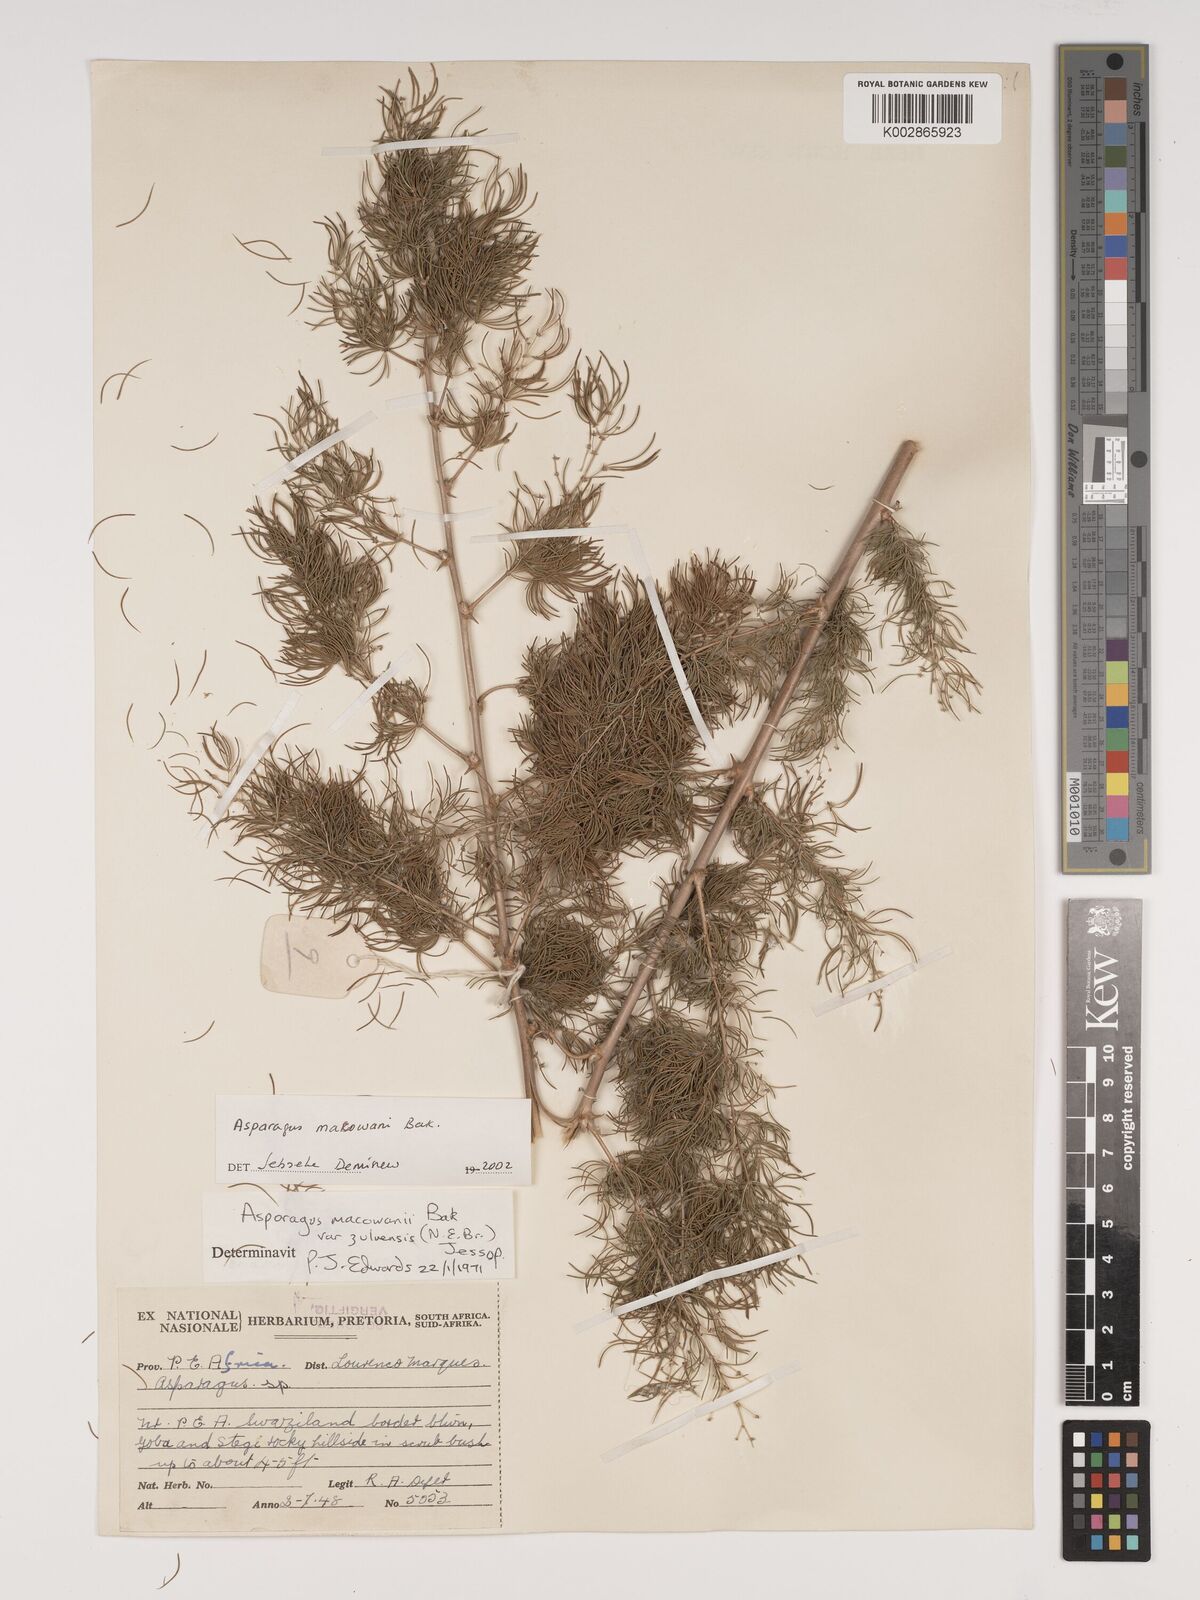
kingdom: Plantae
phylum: Tracheophyta
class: Liliopsida
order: Asparagales
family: Asparagaceae
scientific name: Asparagaceae
